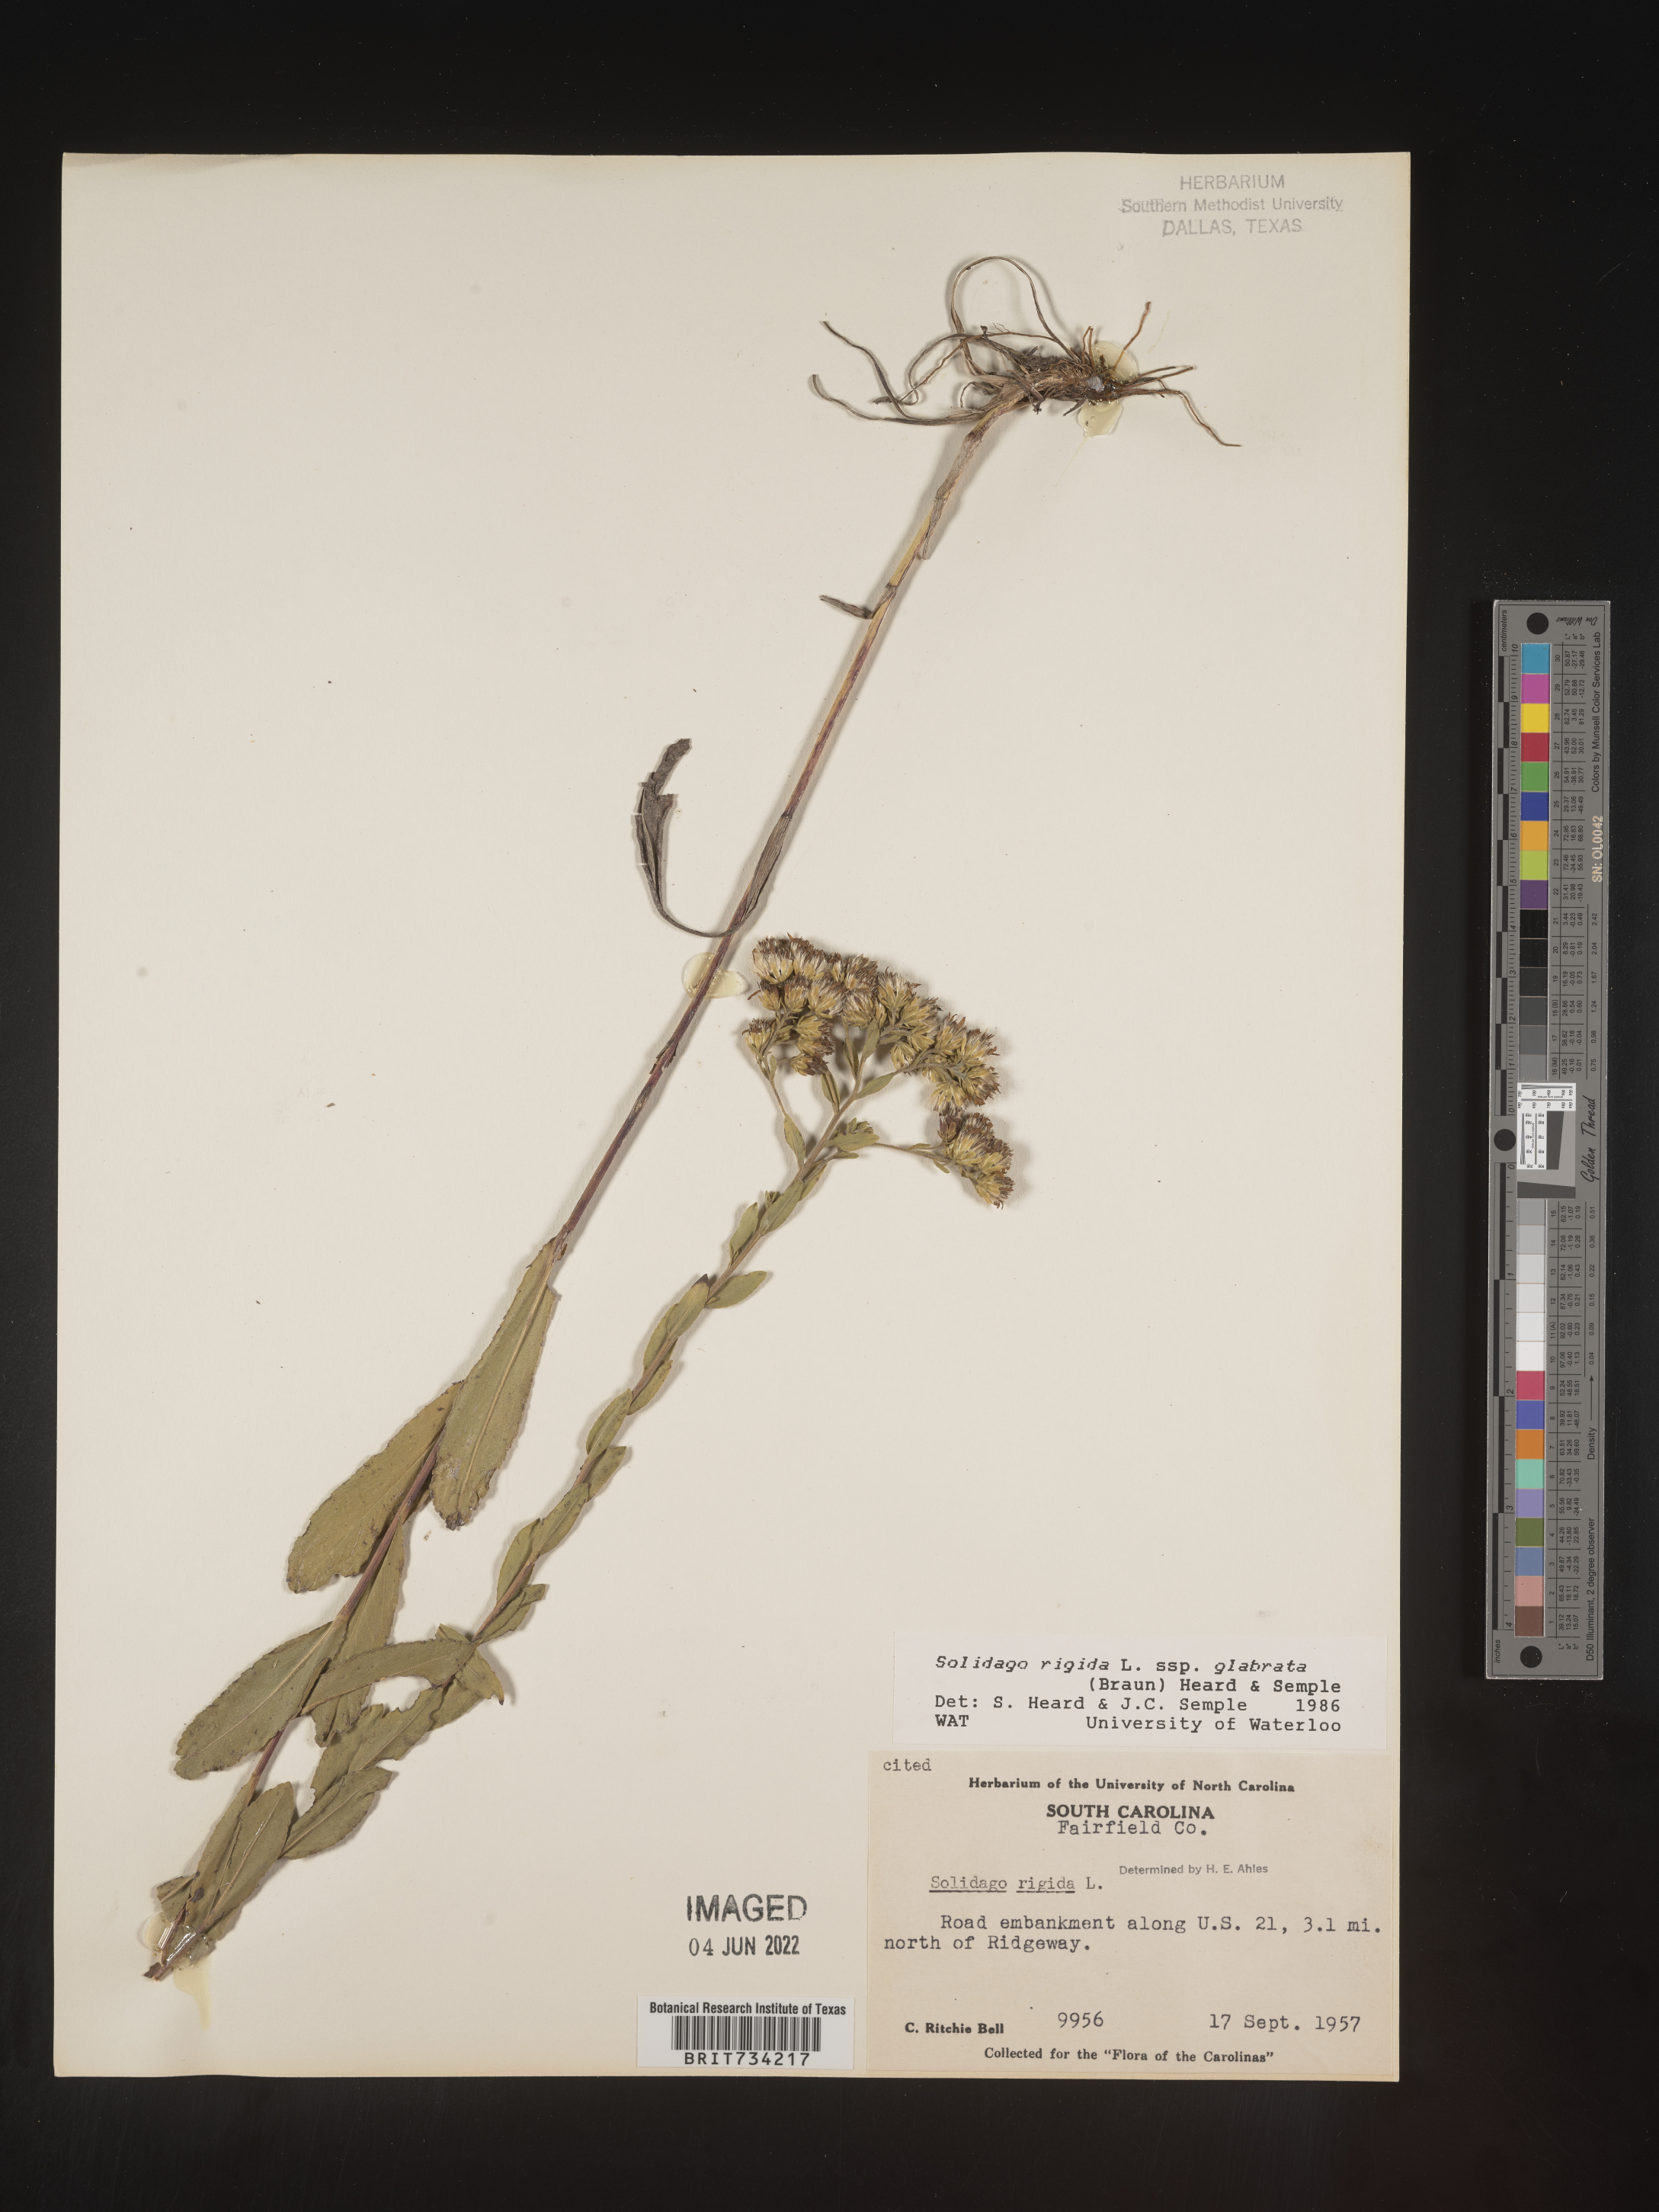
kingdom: Plantae
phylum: Tracheophyta
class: Magnoliopsida
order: Asterales
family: Asteraceae
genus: Solidago
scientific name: Solidago rigida
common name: Rigid goldenrod
